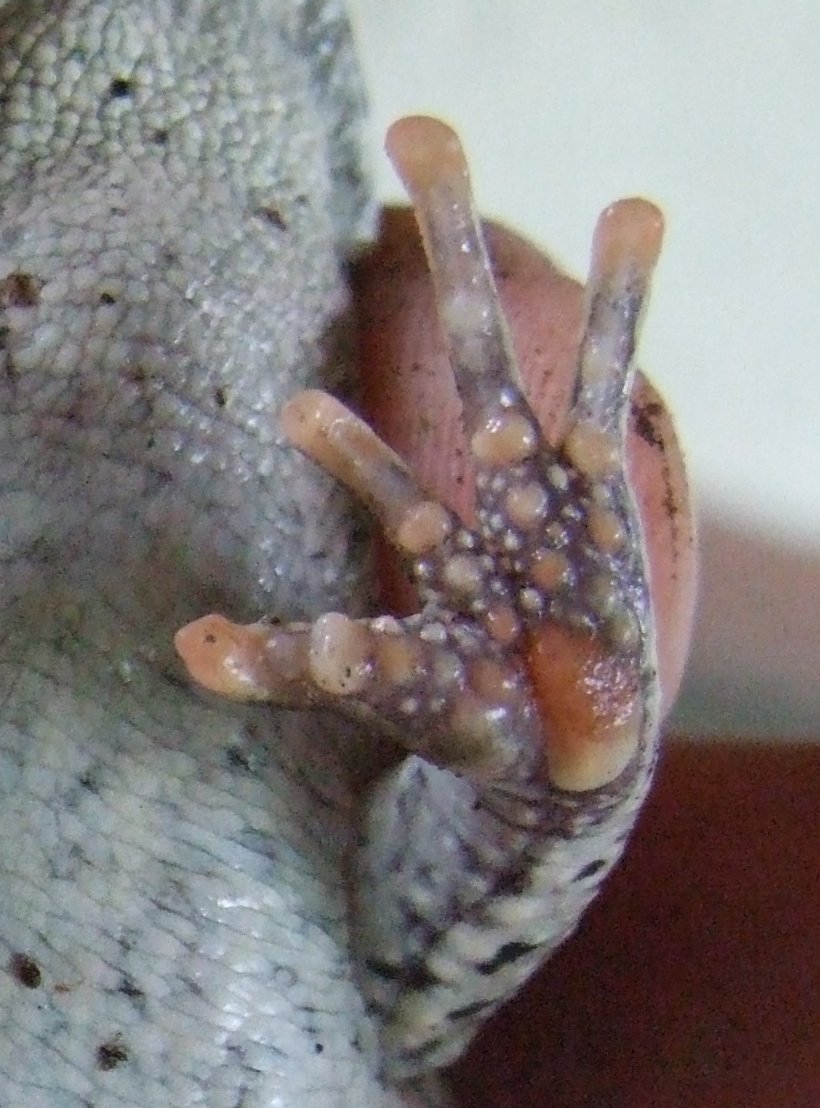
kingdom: Animalia
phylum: Chordata
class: Amphibia
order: Anura
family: Bufonidae
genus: Schismaderma
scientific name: Schismaderma carens
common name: African split-skin toad
